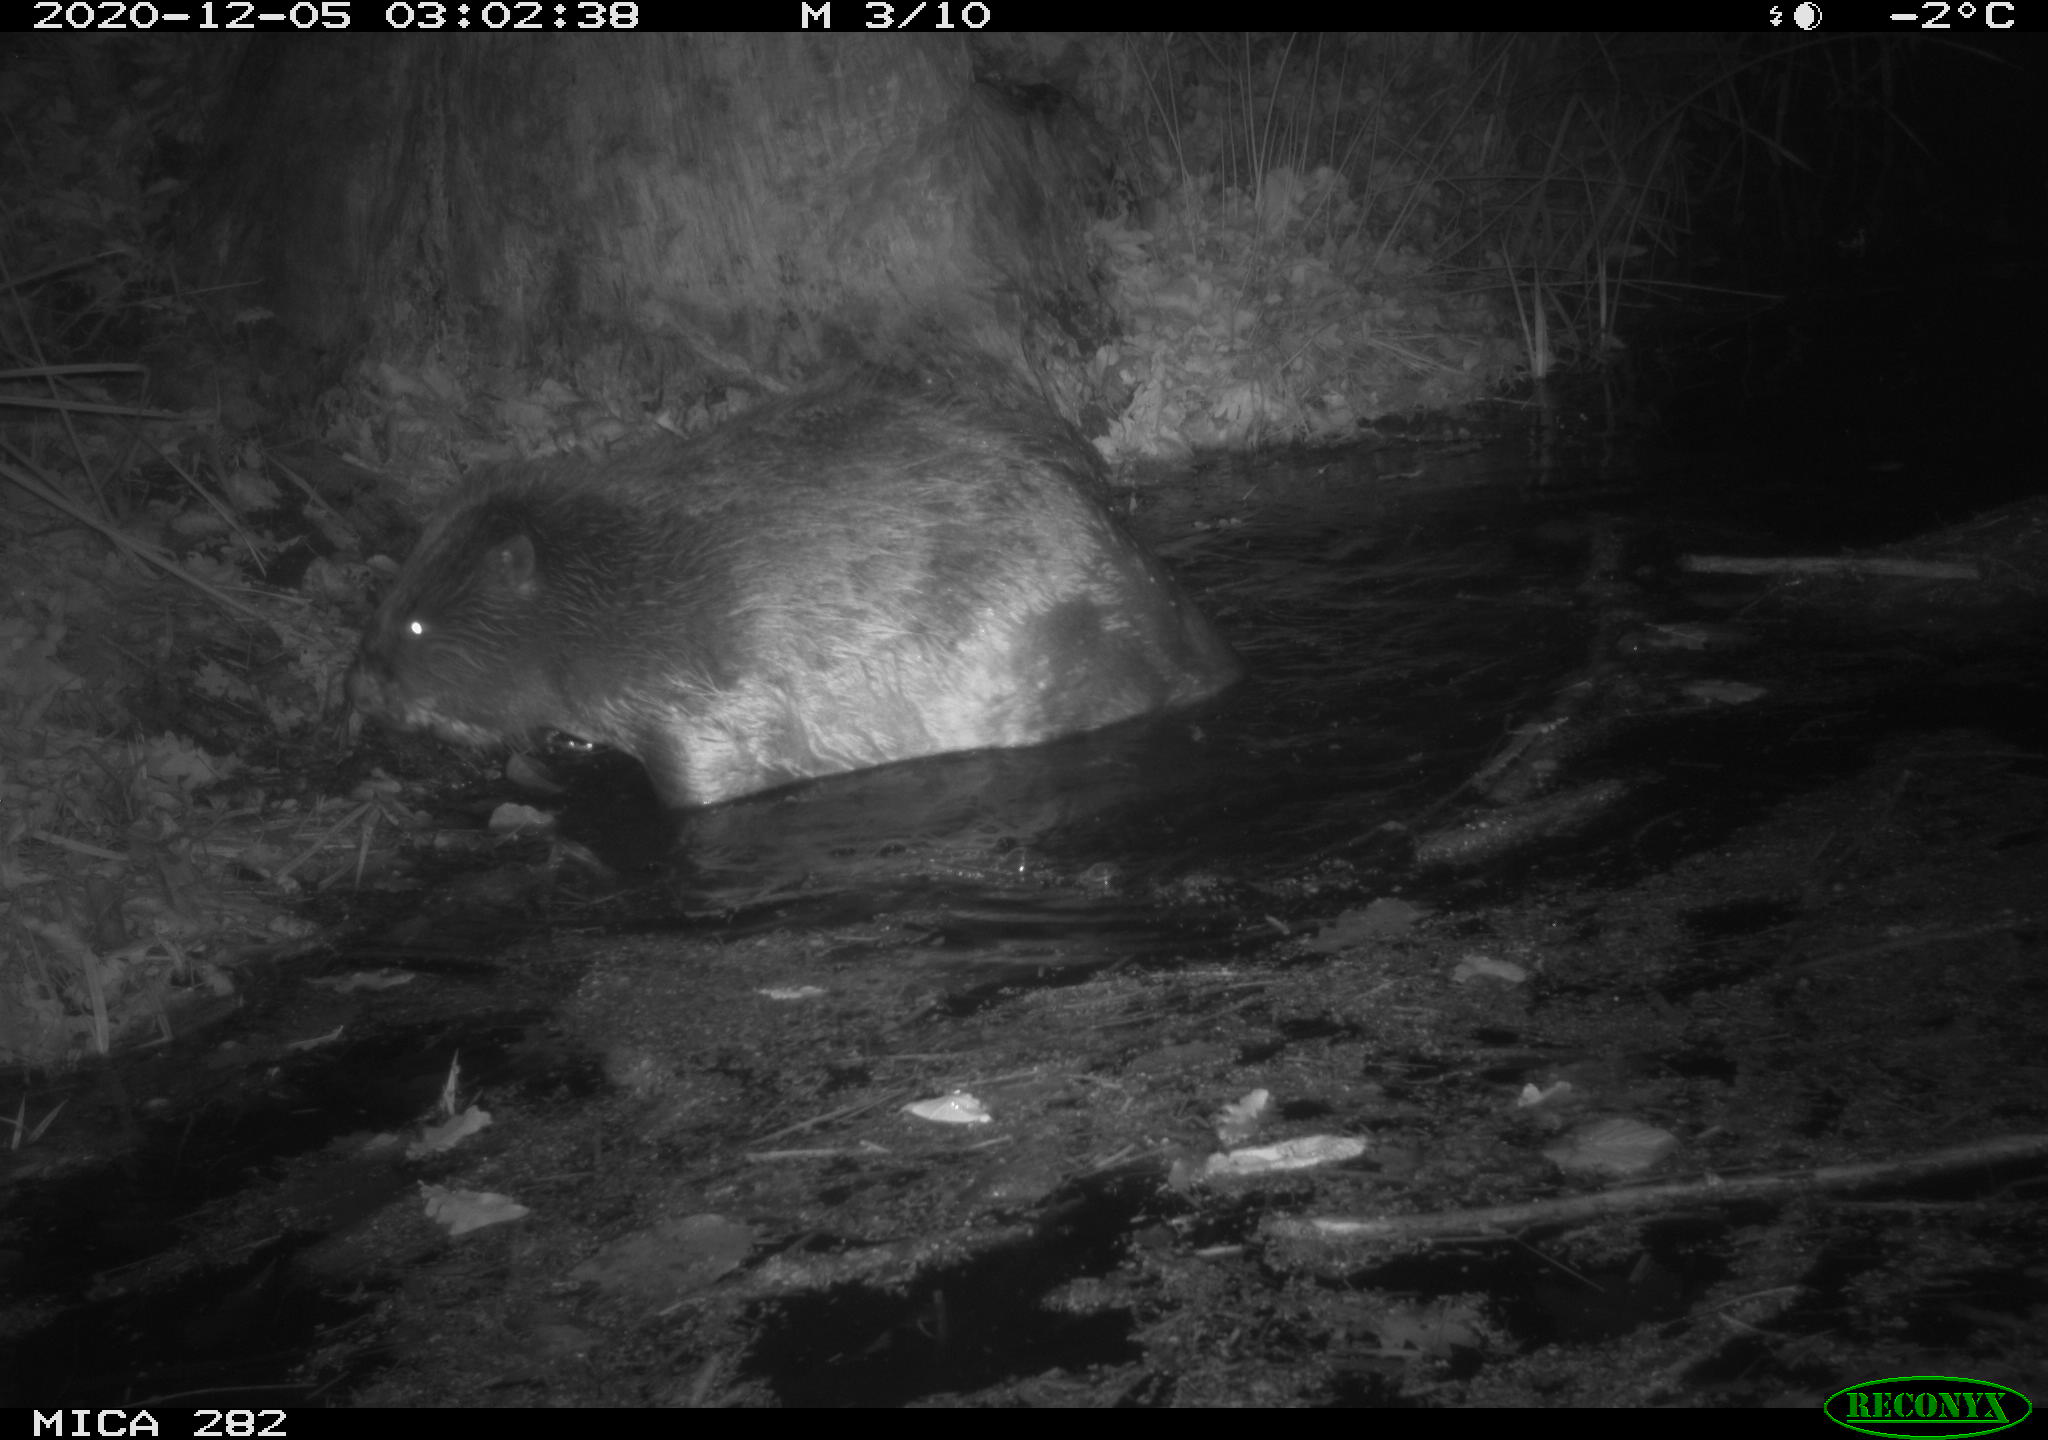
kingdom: Animalia
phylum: Chordata
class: Mammalia
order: Rodentia
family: Castoridae
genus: Castor
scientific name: Castor fiber
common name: Eurasian beaver
